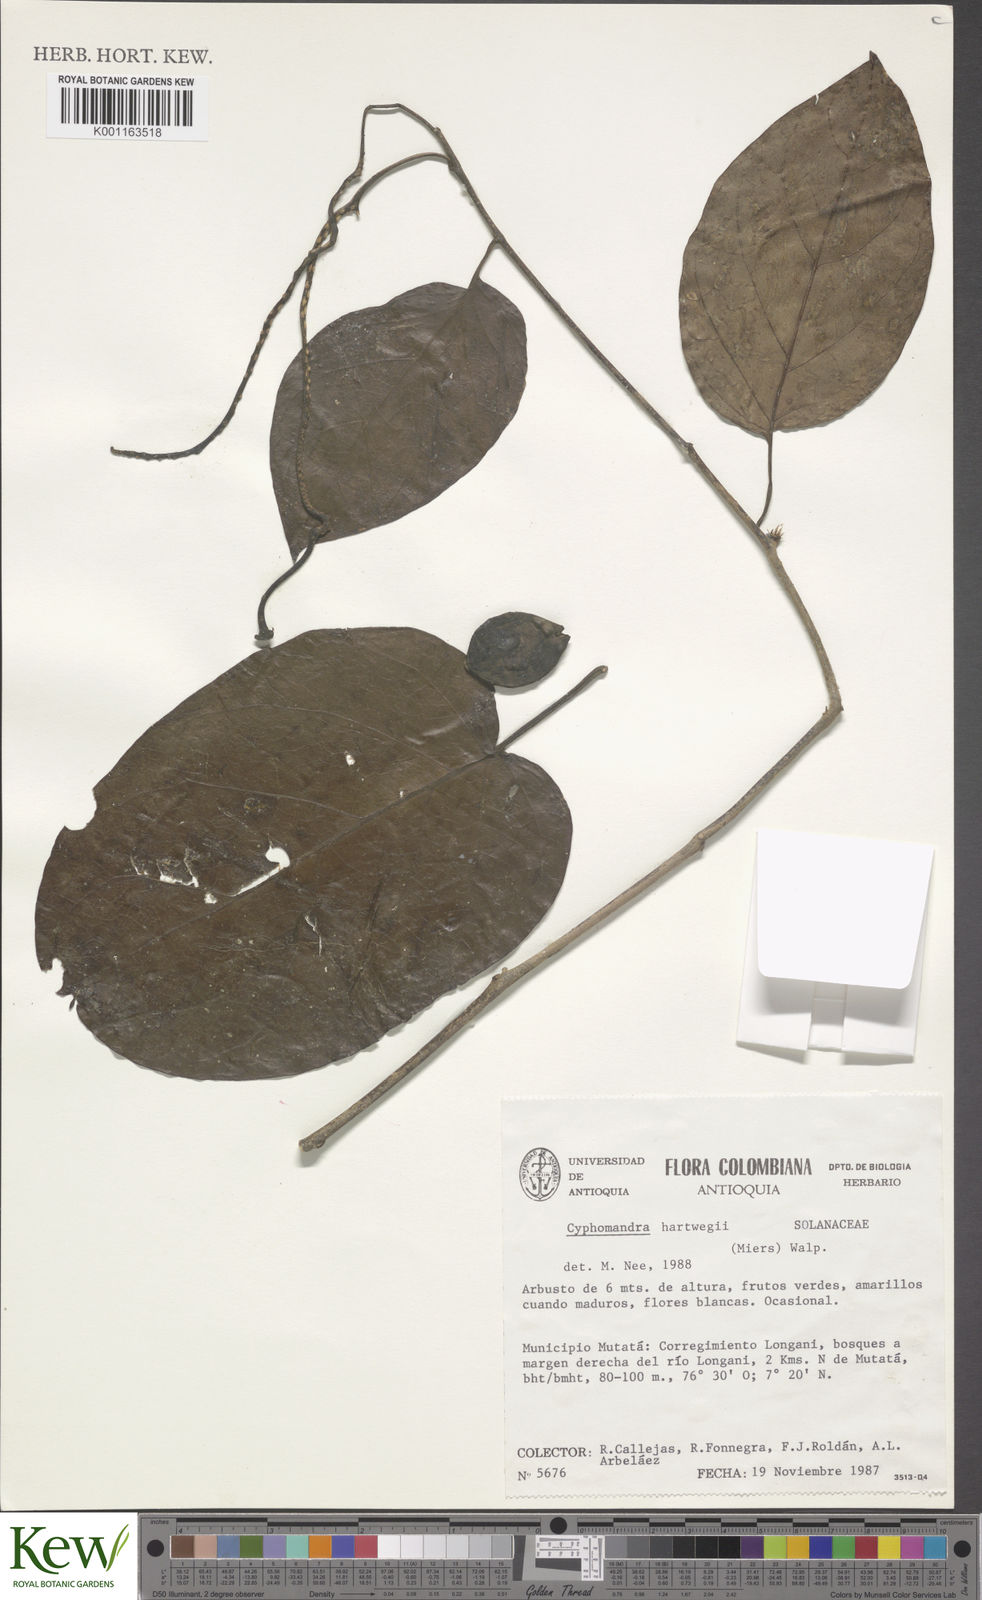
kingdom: Plantae
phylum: Tracheophyta
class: Magnoliopsida
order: Solanales
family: Solanaceae
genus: Solanum
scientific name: Solanum splendens
